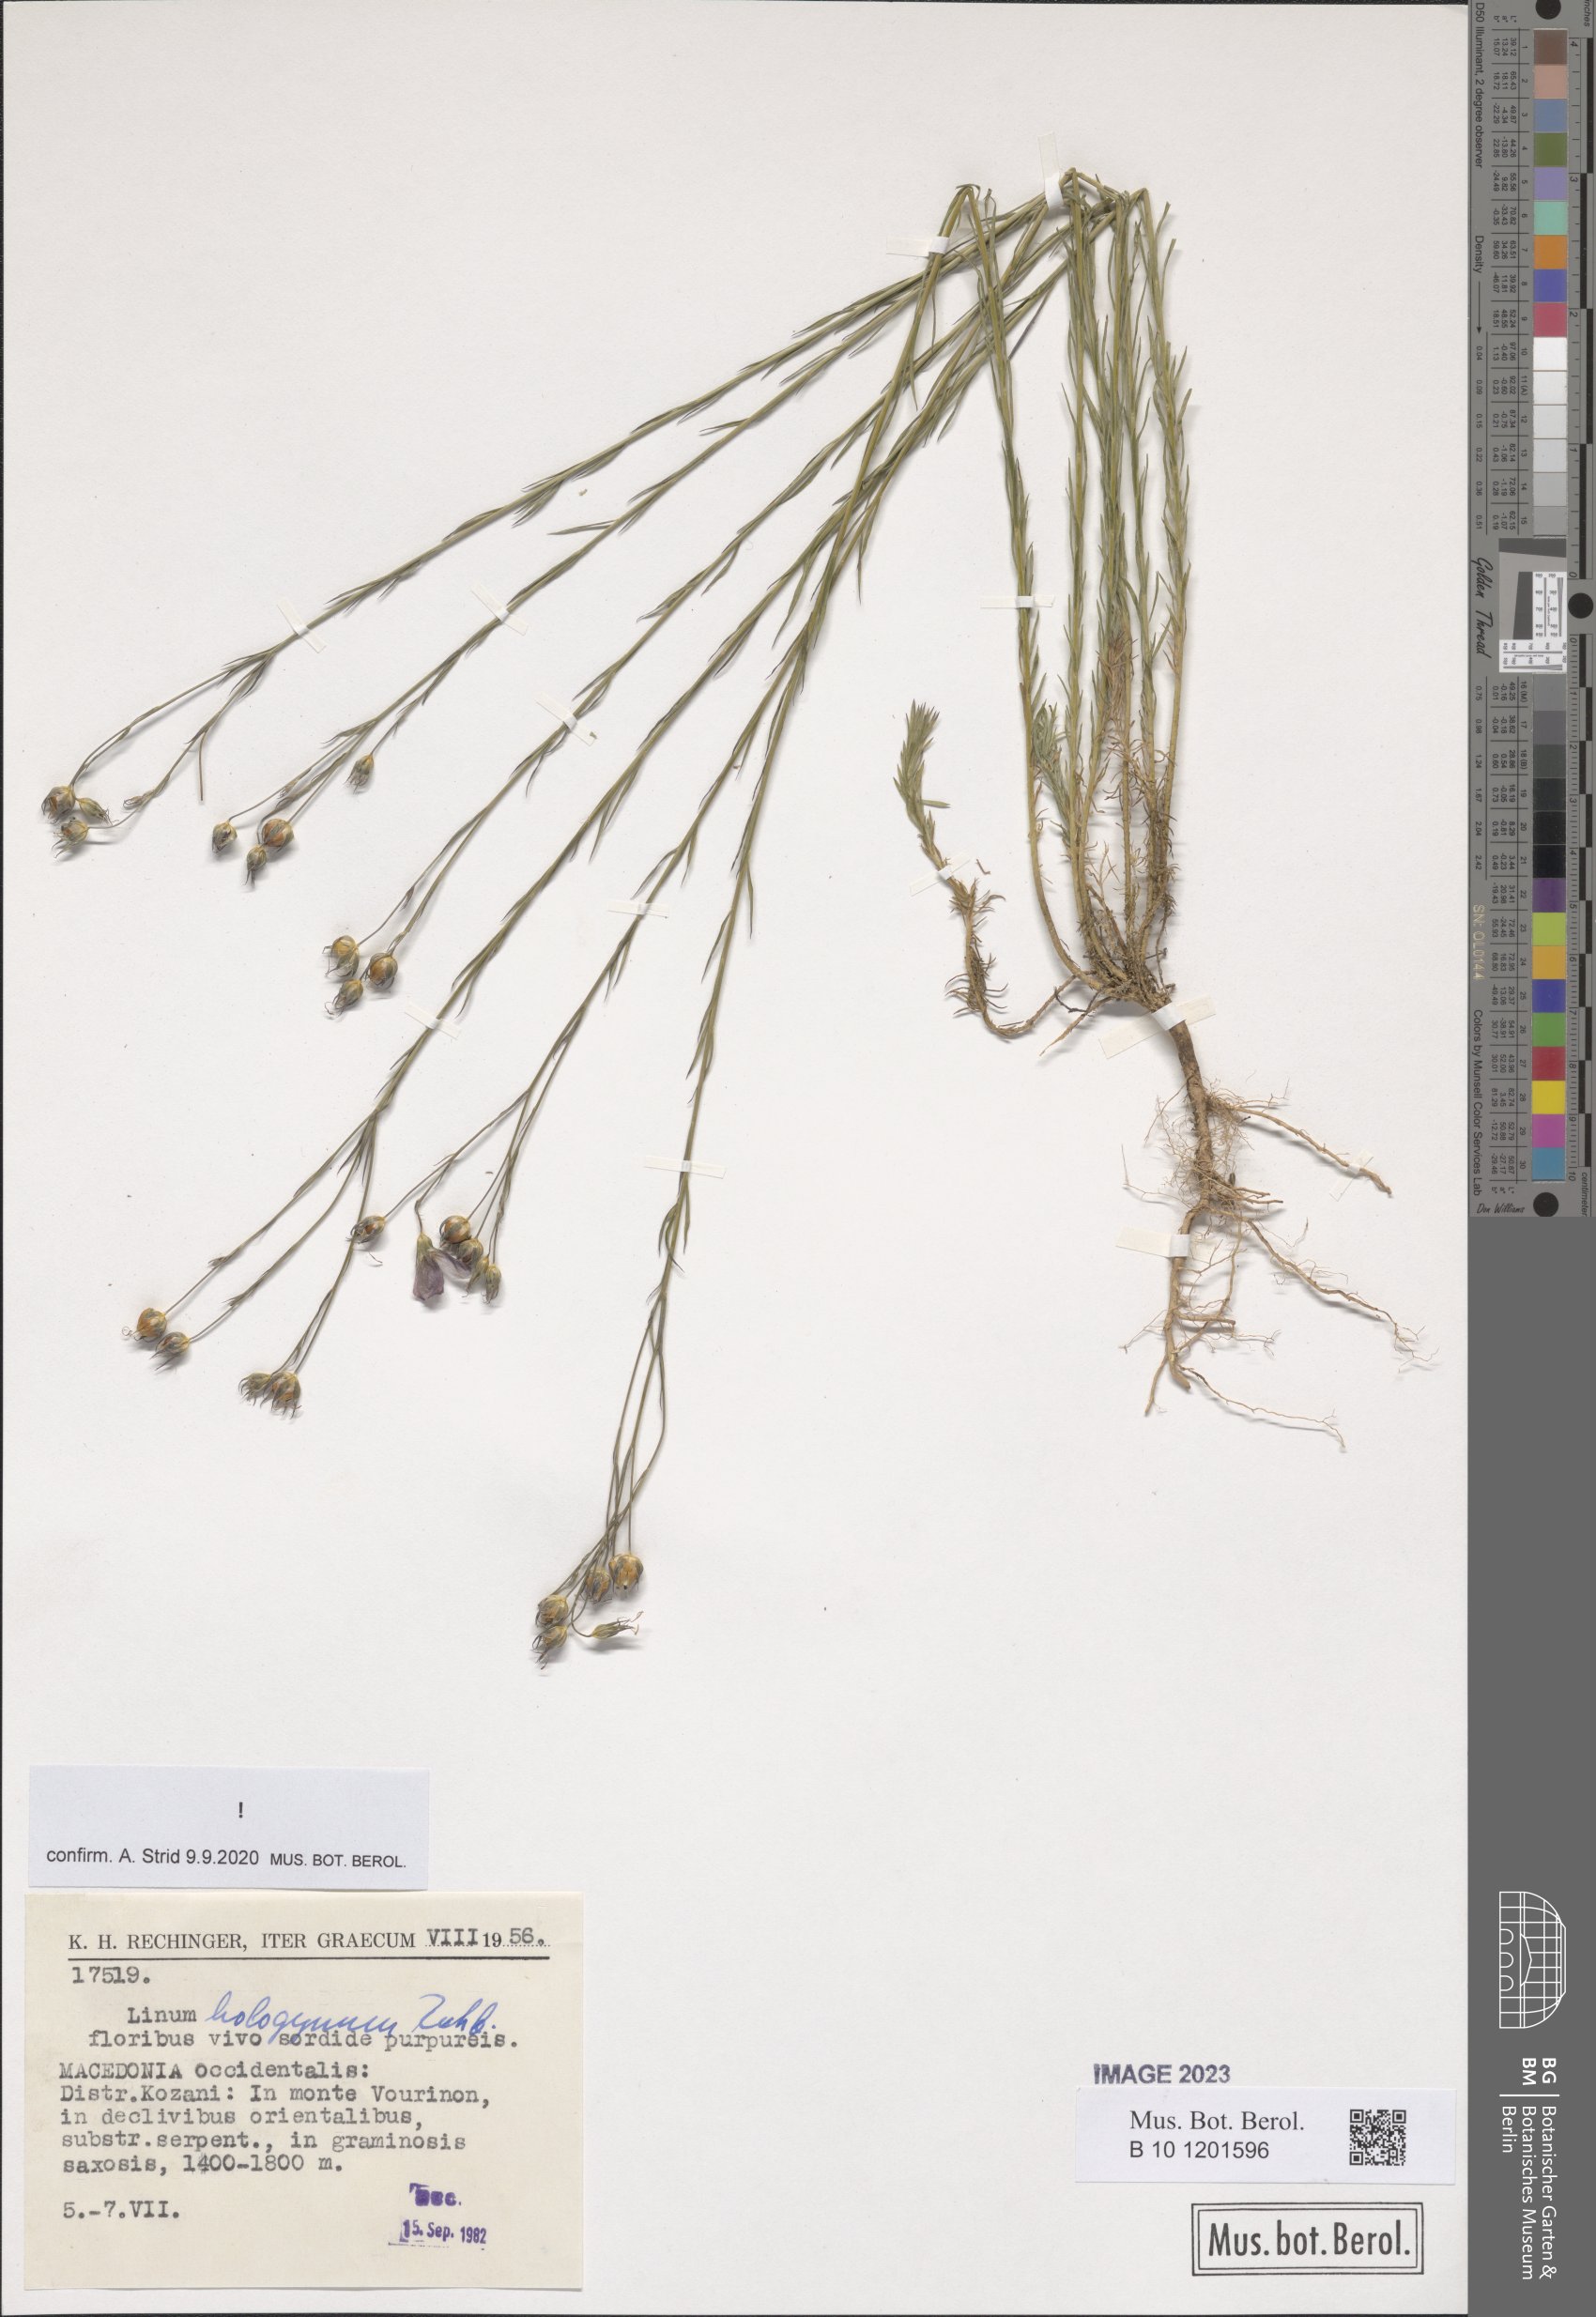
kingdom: Plantae
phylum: Tracheophyta
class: Magnoliopsida
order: Malpighiales
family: Linaceae
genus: Linum
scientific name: Linum hologynum
